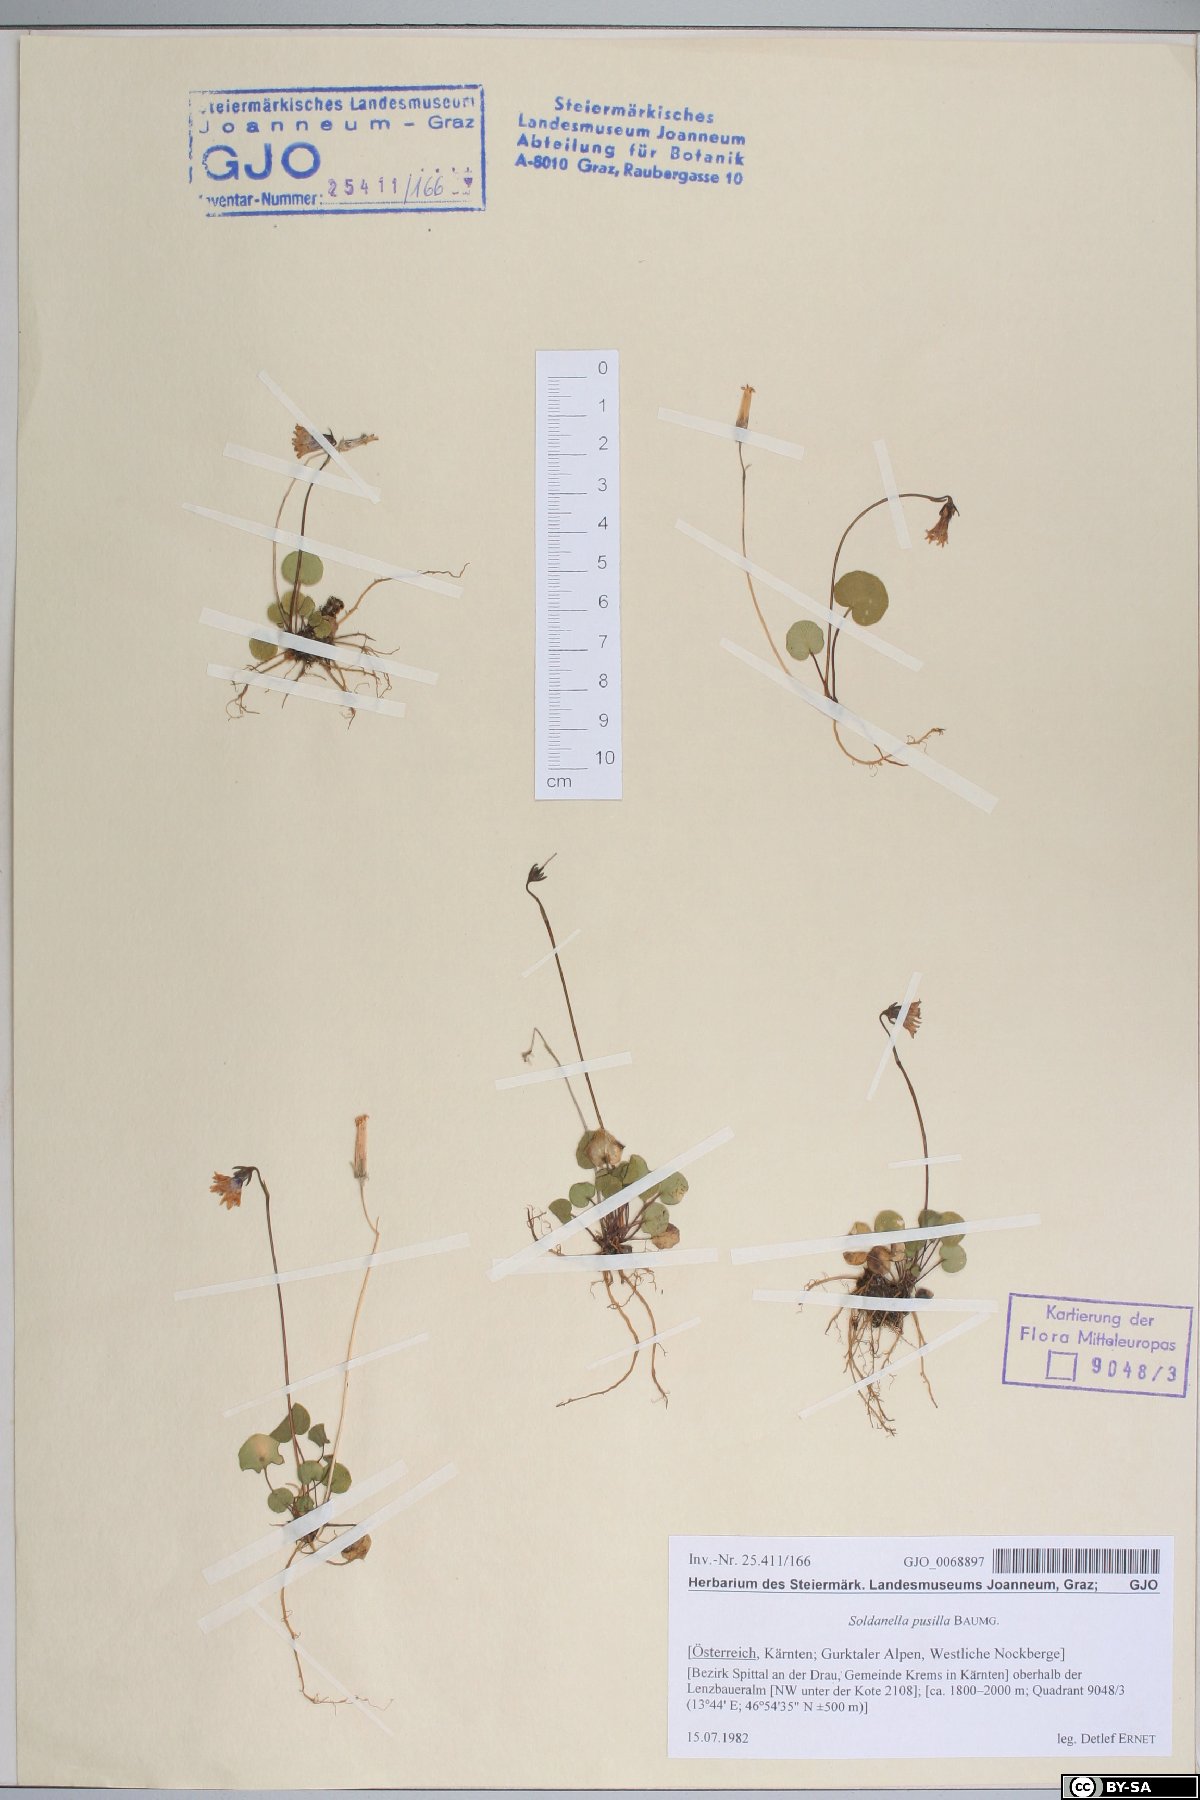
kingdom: Plantae
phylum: Tracheophyta
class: Magnoliopsida
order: Ericales
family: Primulaceae
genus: Soldanella
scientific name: Soldanella pusilla
